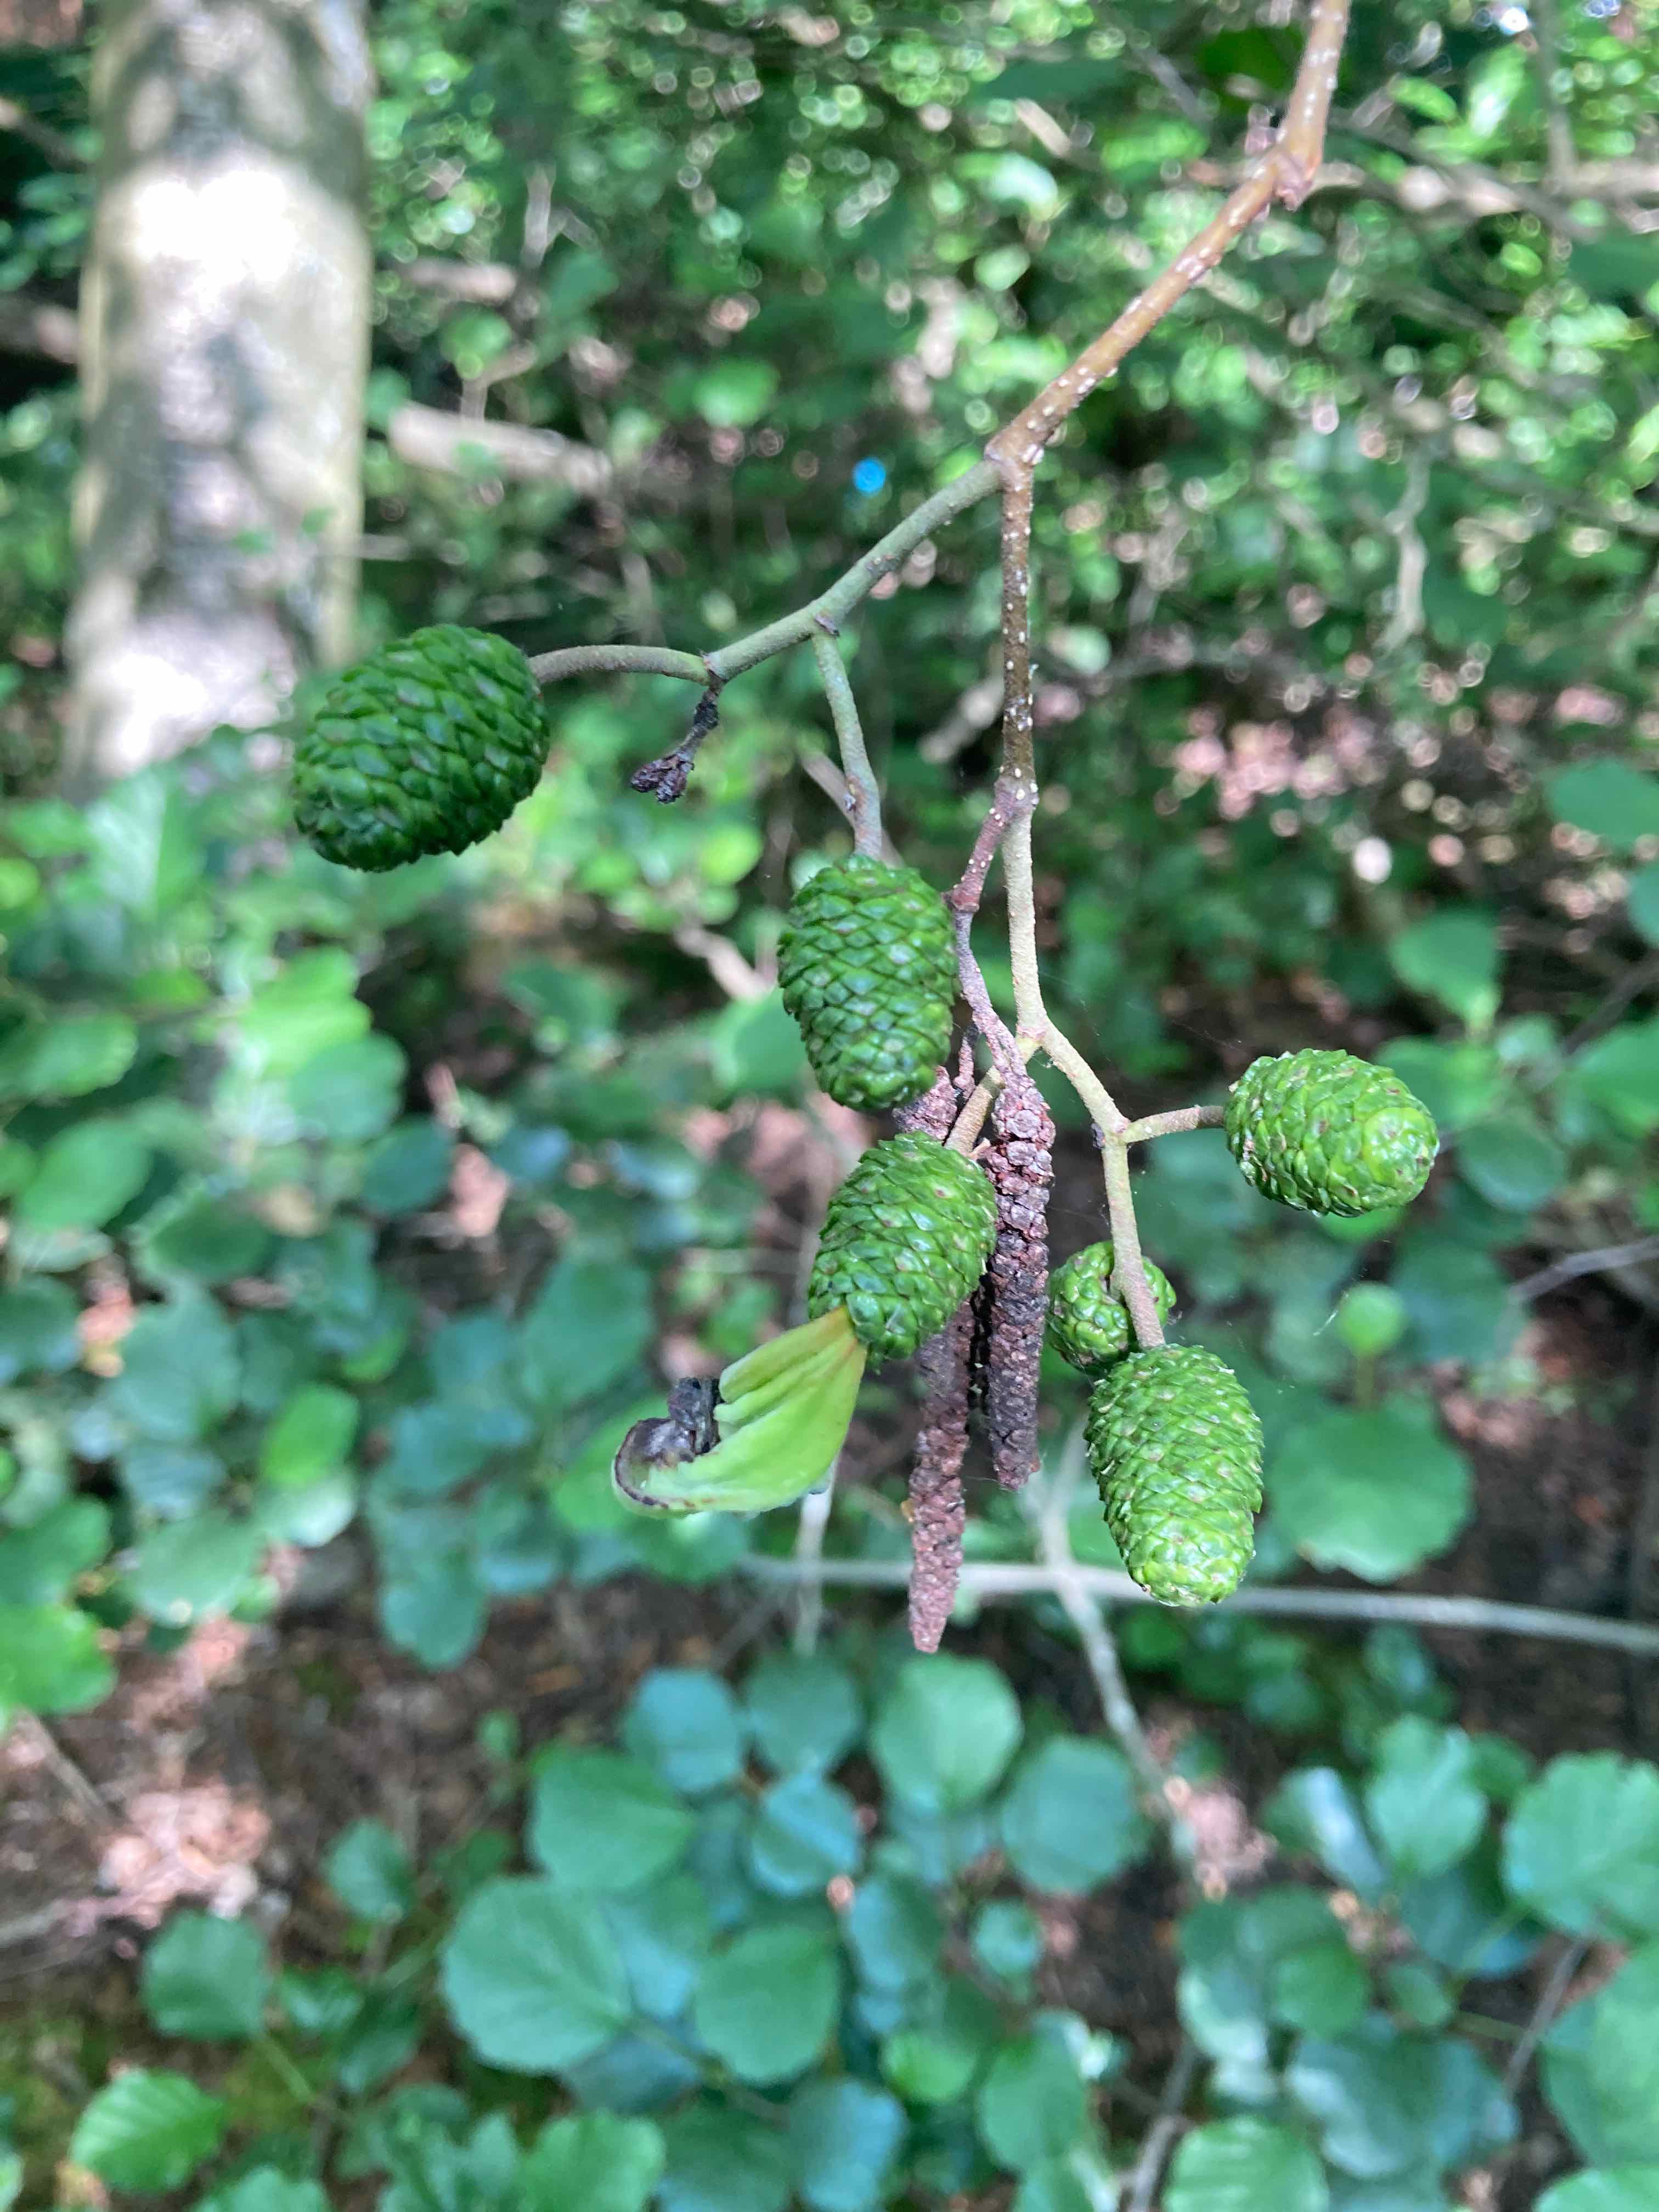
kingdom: Fungi
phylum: Ascomycota
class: Taphrinomycetes
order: Taphrinales
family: Taphrinaceae
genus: Taphrina
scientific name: Taphrina alni
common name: Alder tongue
